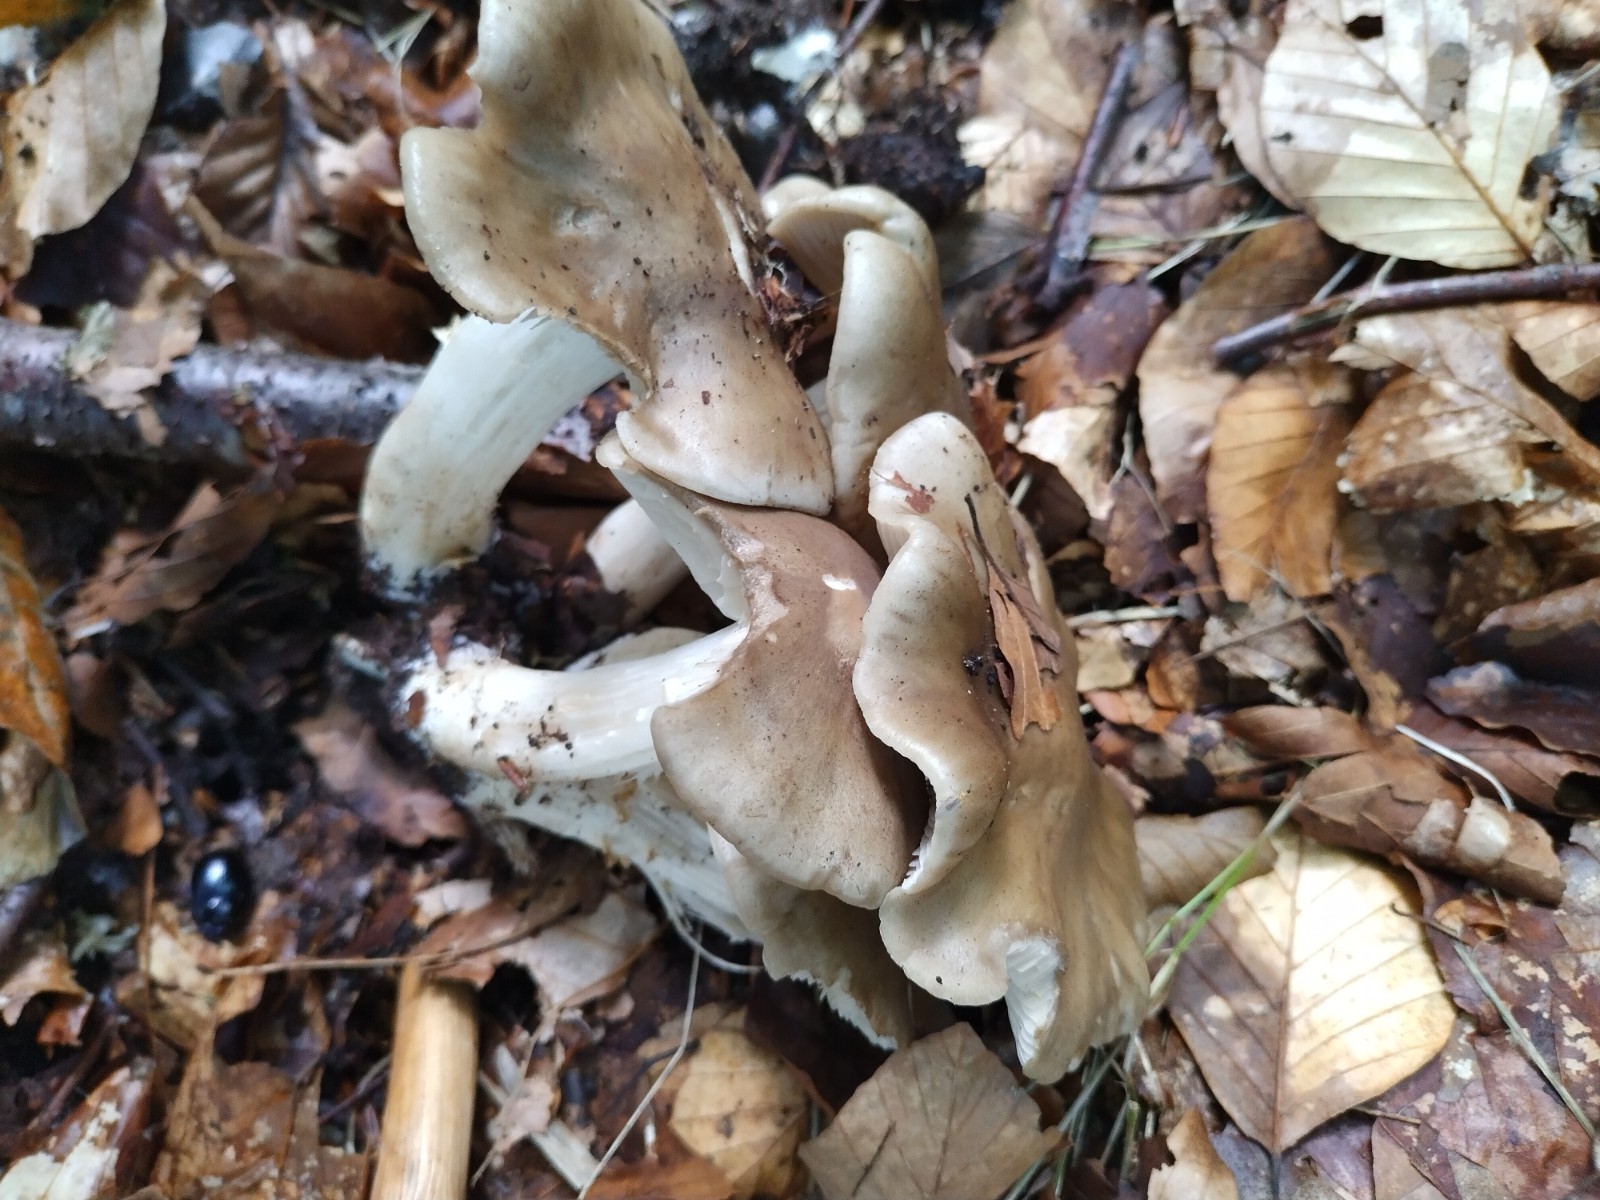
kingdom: Fungi
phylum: Basidiomycota
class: Agaricomycetes
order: Agaricales
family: Lyophyllaceae
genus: Lyophyllum
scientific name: Lyophyllum
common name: gråblad
